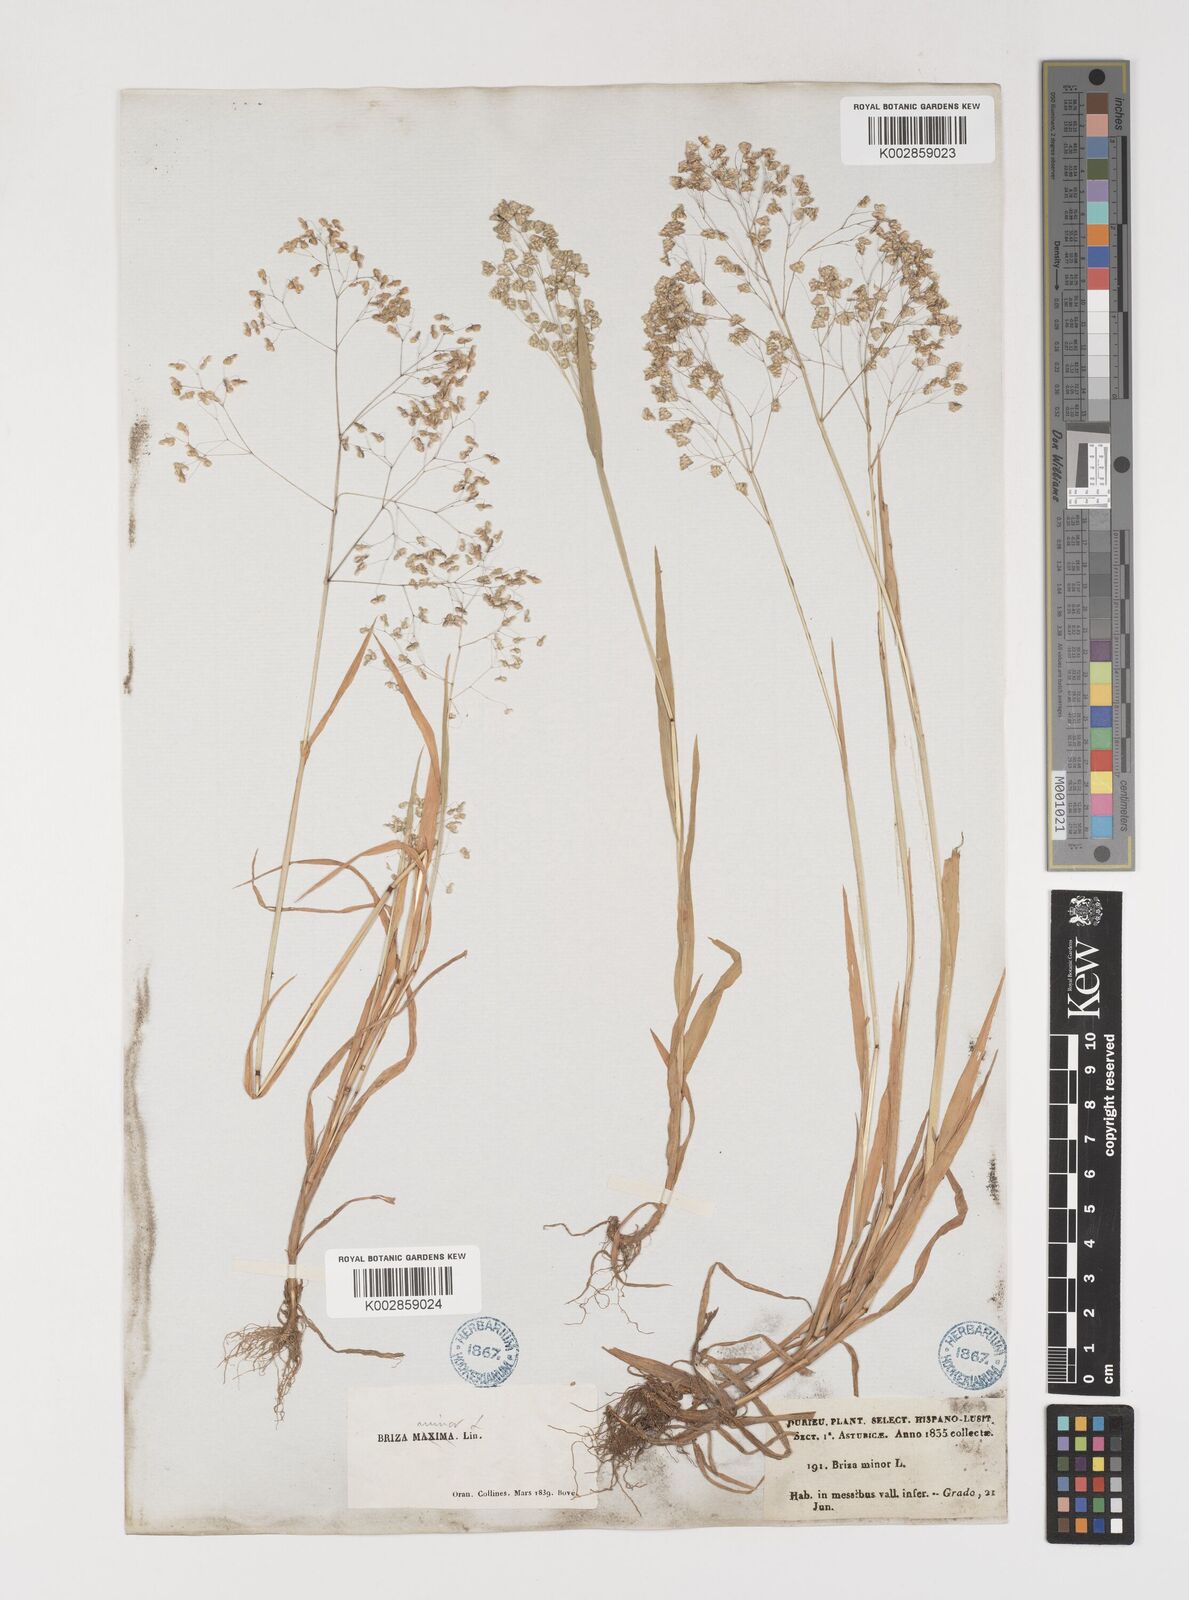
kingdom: Plantae
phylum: Tracheophyta
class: Liliopsida
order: Poales
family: Poaceae
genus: Briza
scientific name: Briza minor
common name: Lesser quaking-grass
